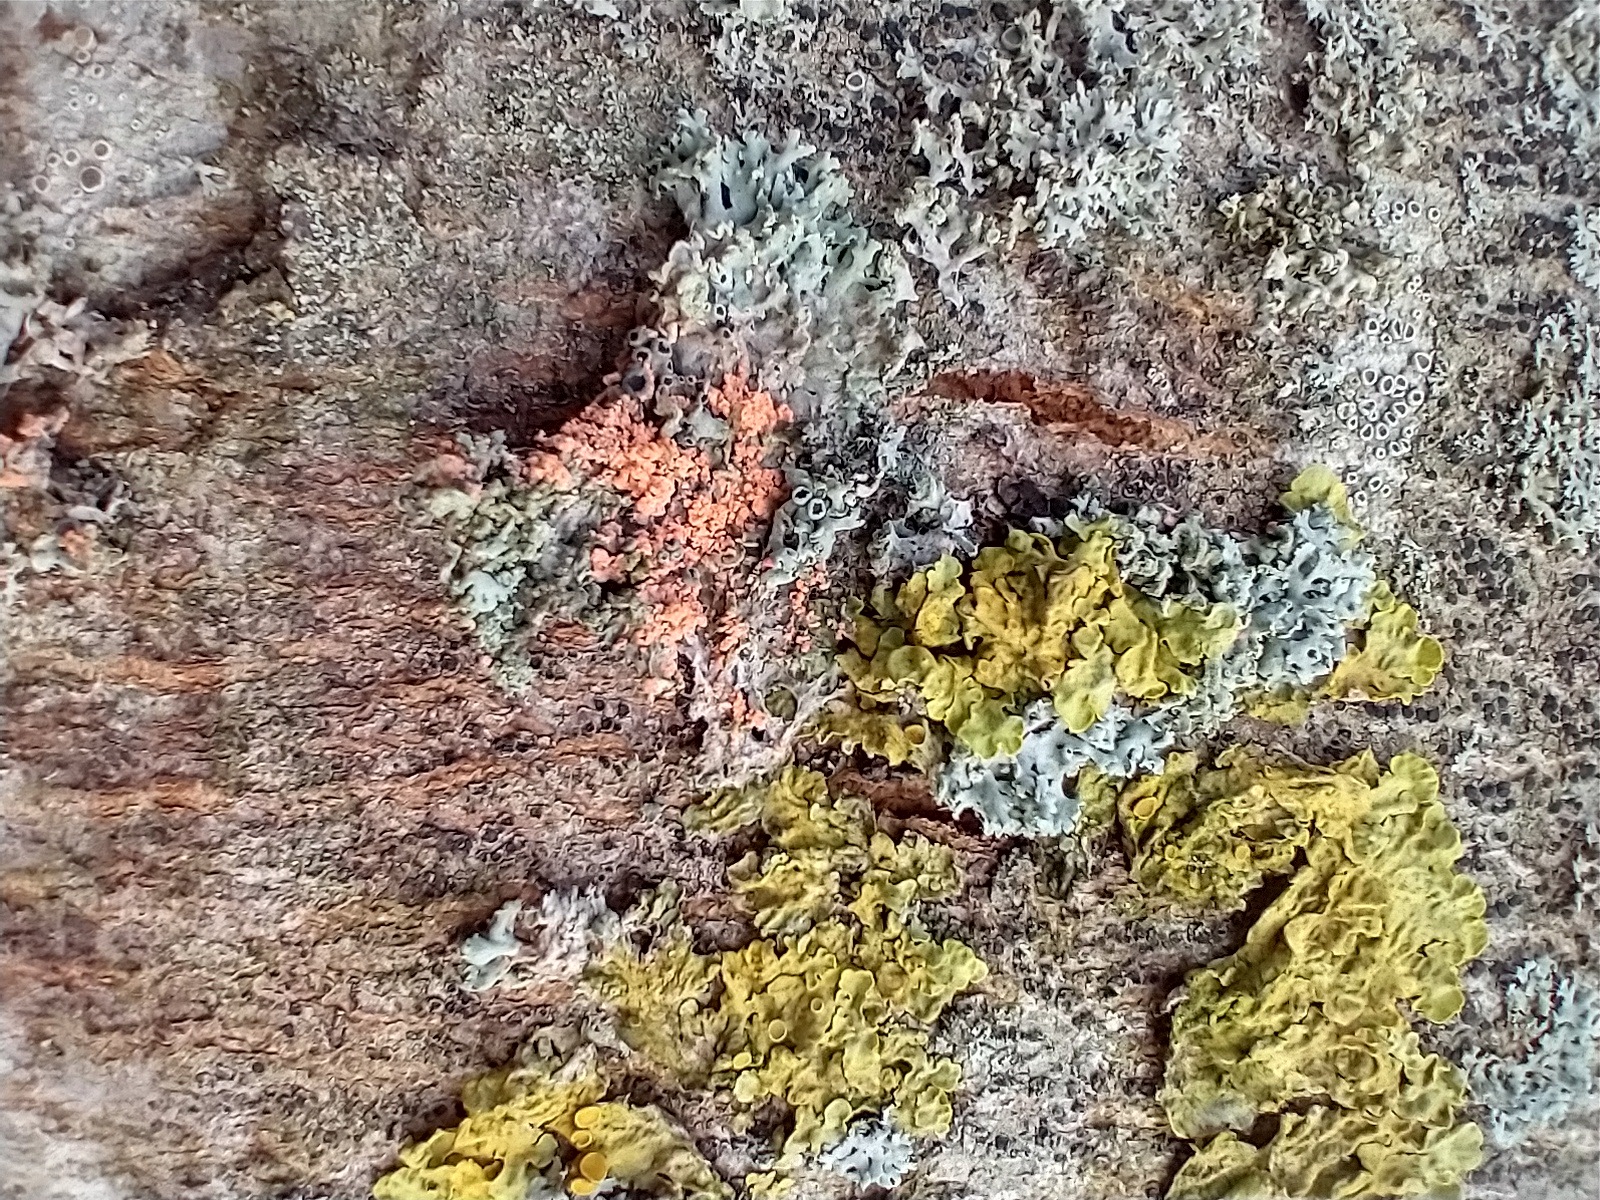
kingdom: Fungi
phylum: Basidiomycota
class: Agaricomycetes
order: Corticiales
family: Corticiaceae
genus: Erythricium
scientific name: Erythricium aurantiacum
